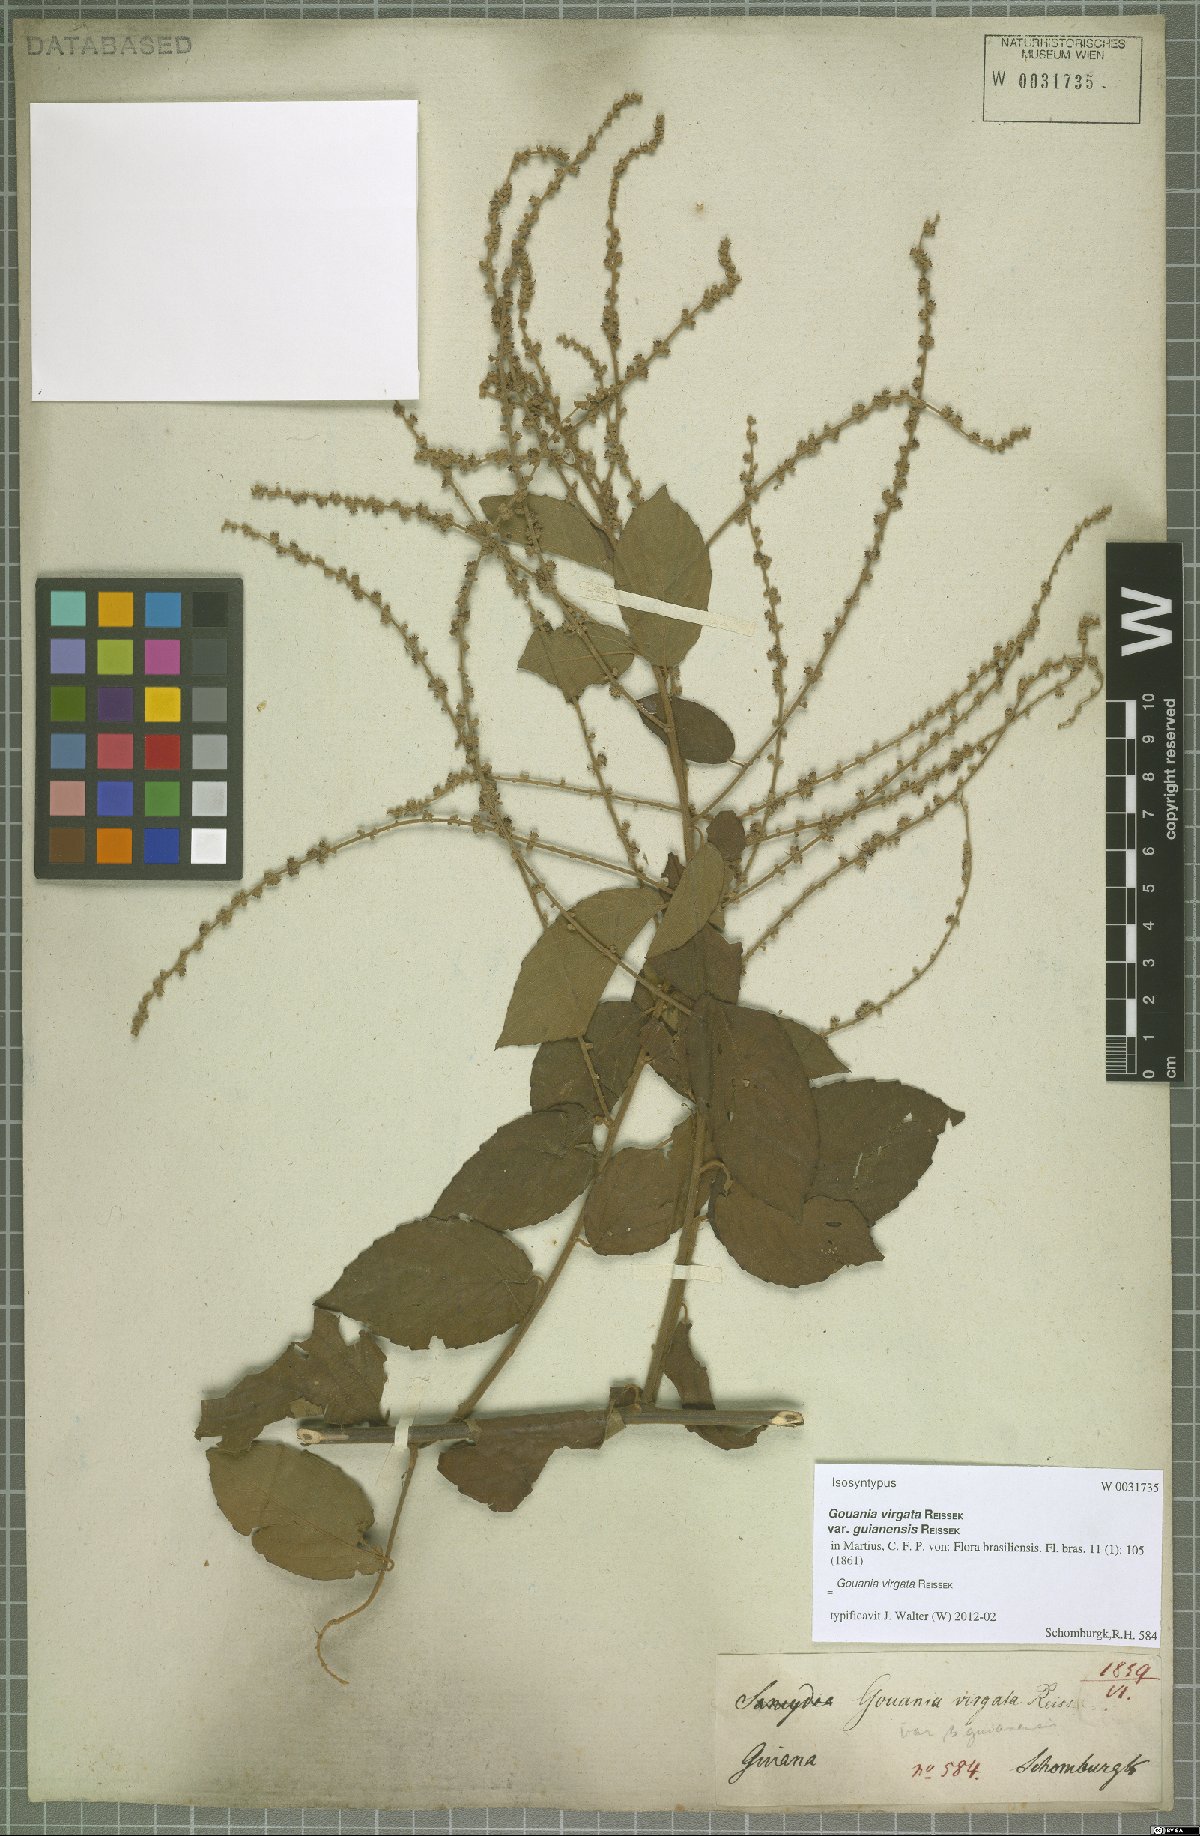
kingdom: Plantae
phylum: Tracheophyta
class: Magnoliopsida
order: Rosales
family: Rhamnaceae
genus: Gouania
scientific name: Gouania lupuloides
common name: Chewstick
